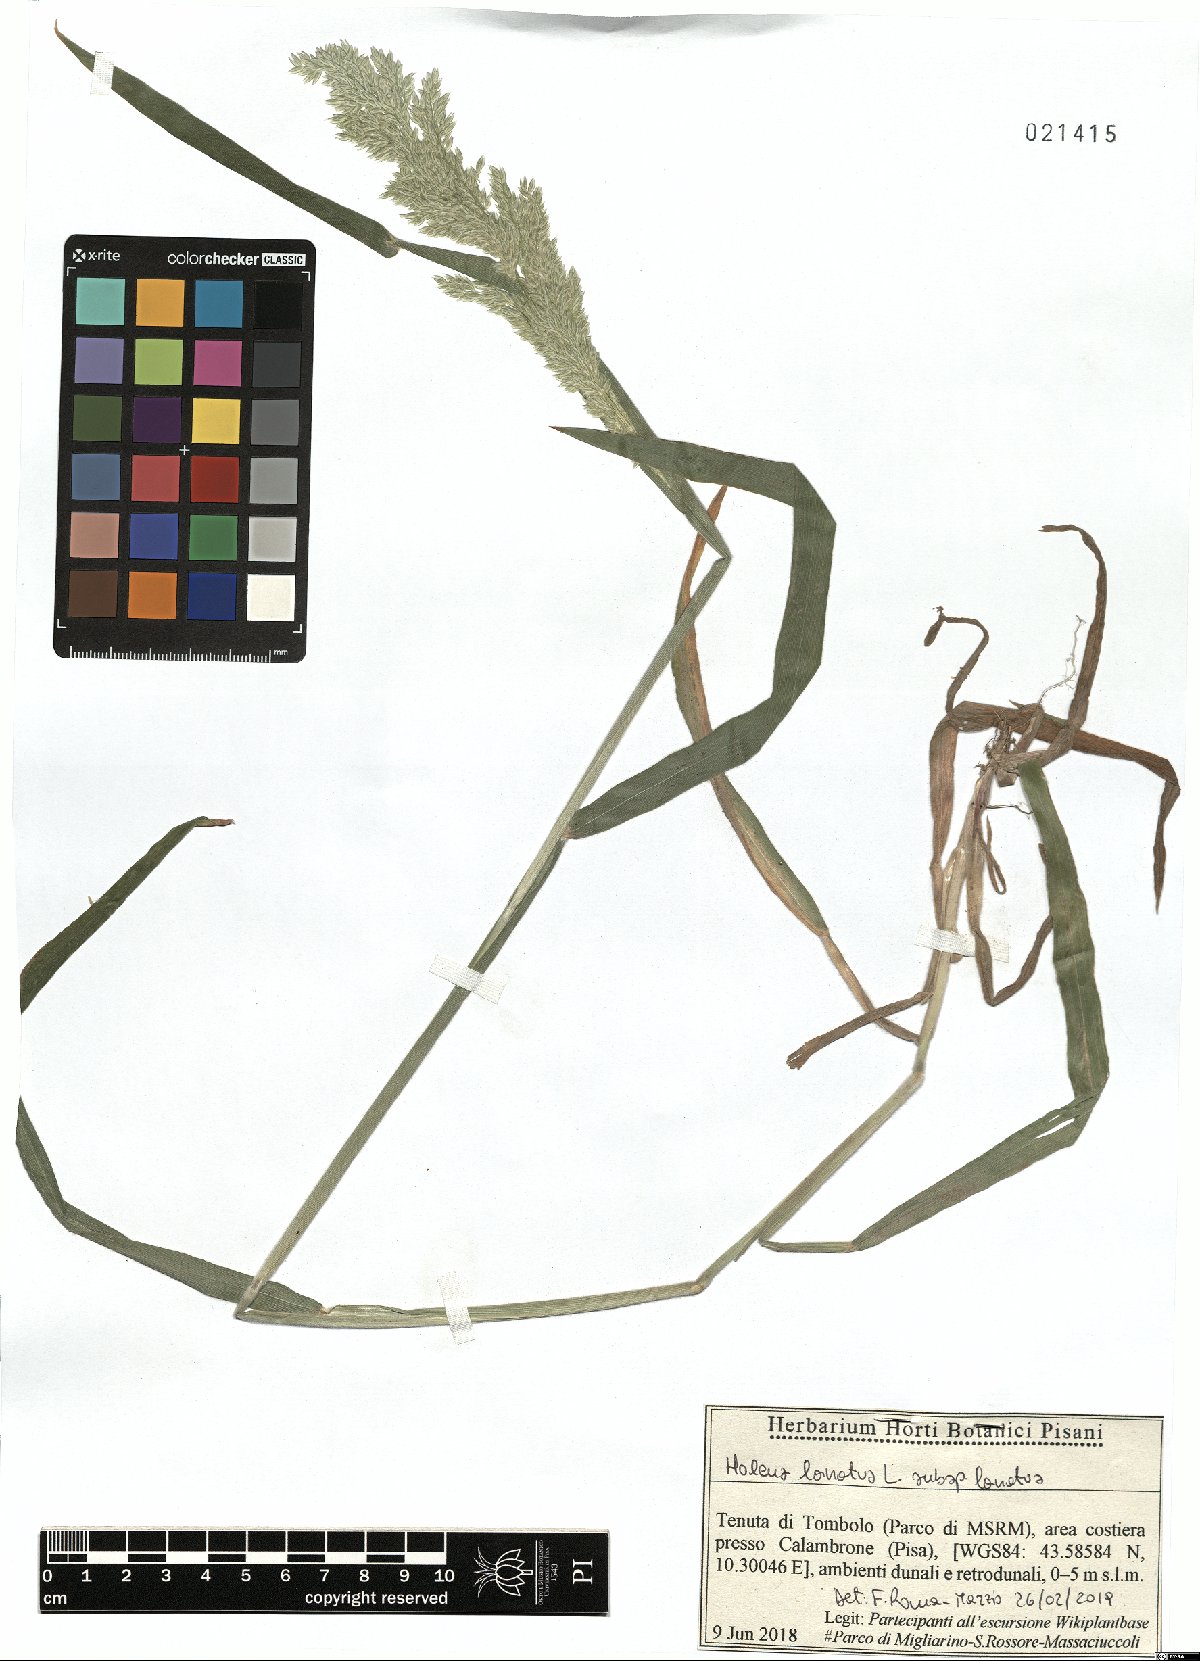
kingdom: Plantae
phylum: Tracheophyta
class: Liliopsida
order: Poales
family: Poaceae
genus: Holcus
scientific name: Holcus lanatus
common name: Yorkshire-fog
